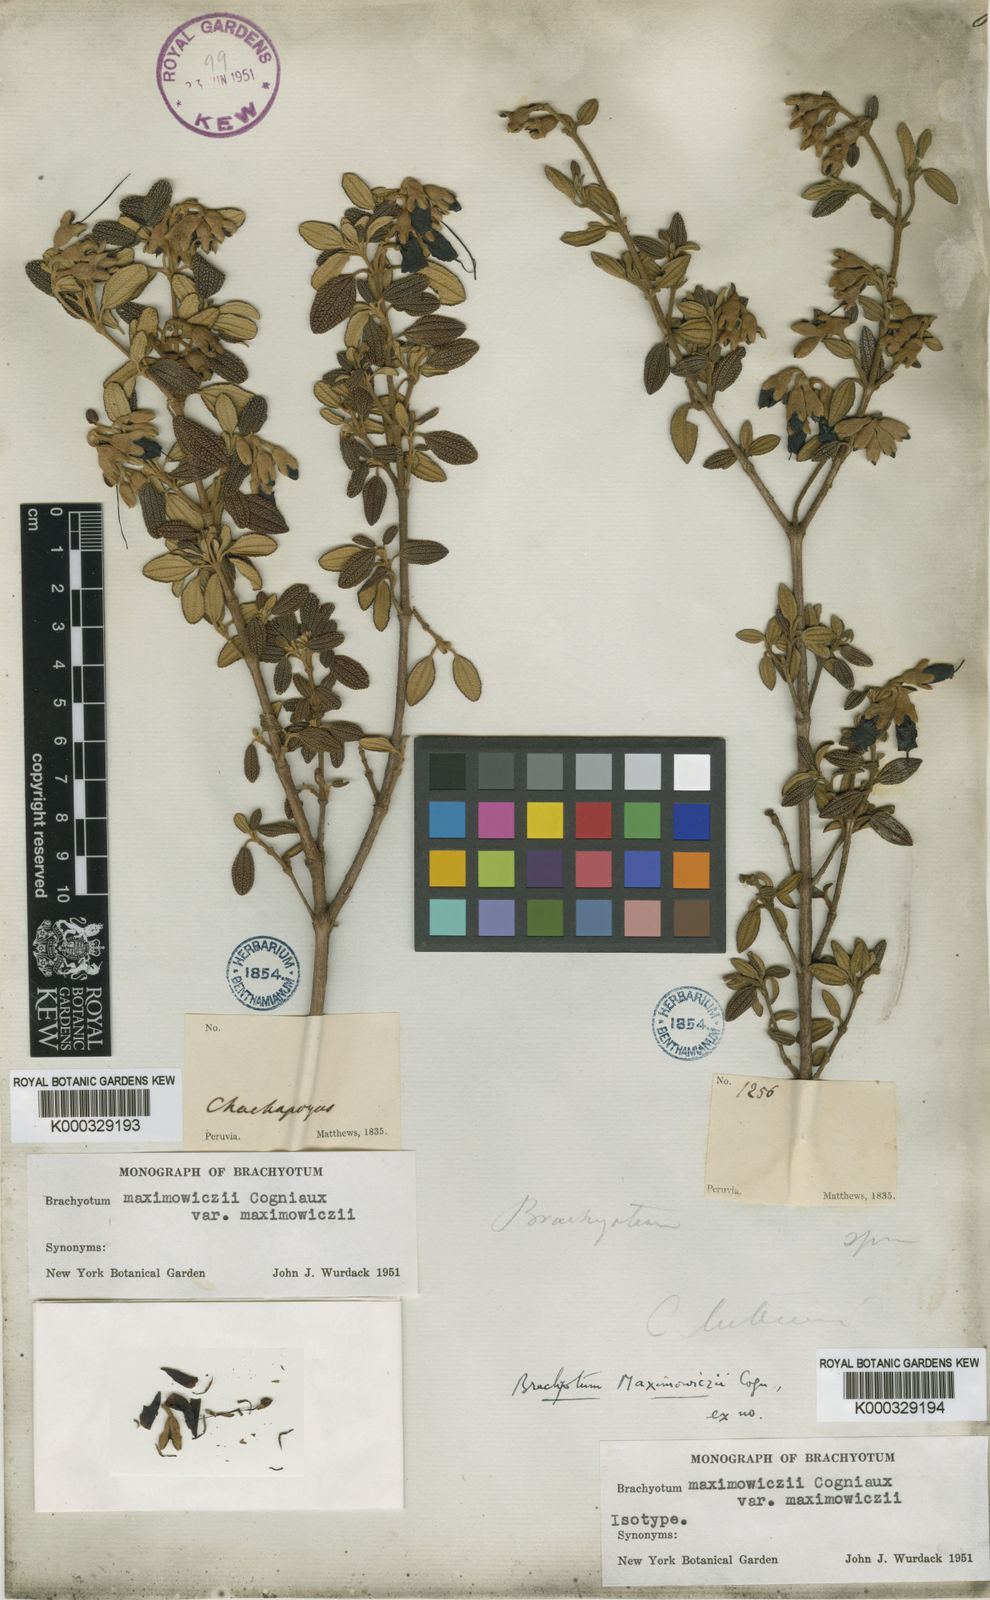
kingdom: Plantae
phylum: Tracheophyta
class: Magnoliopsida
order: Myrtales
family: Melastomataceae
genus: Brachyotum
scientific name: Brachyotum maximowiczii
